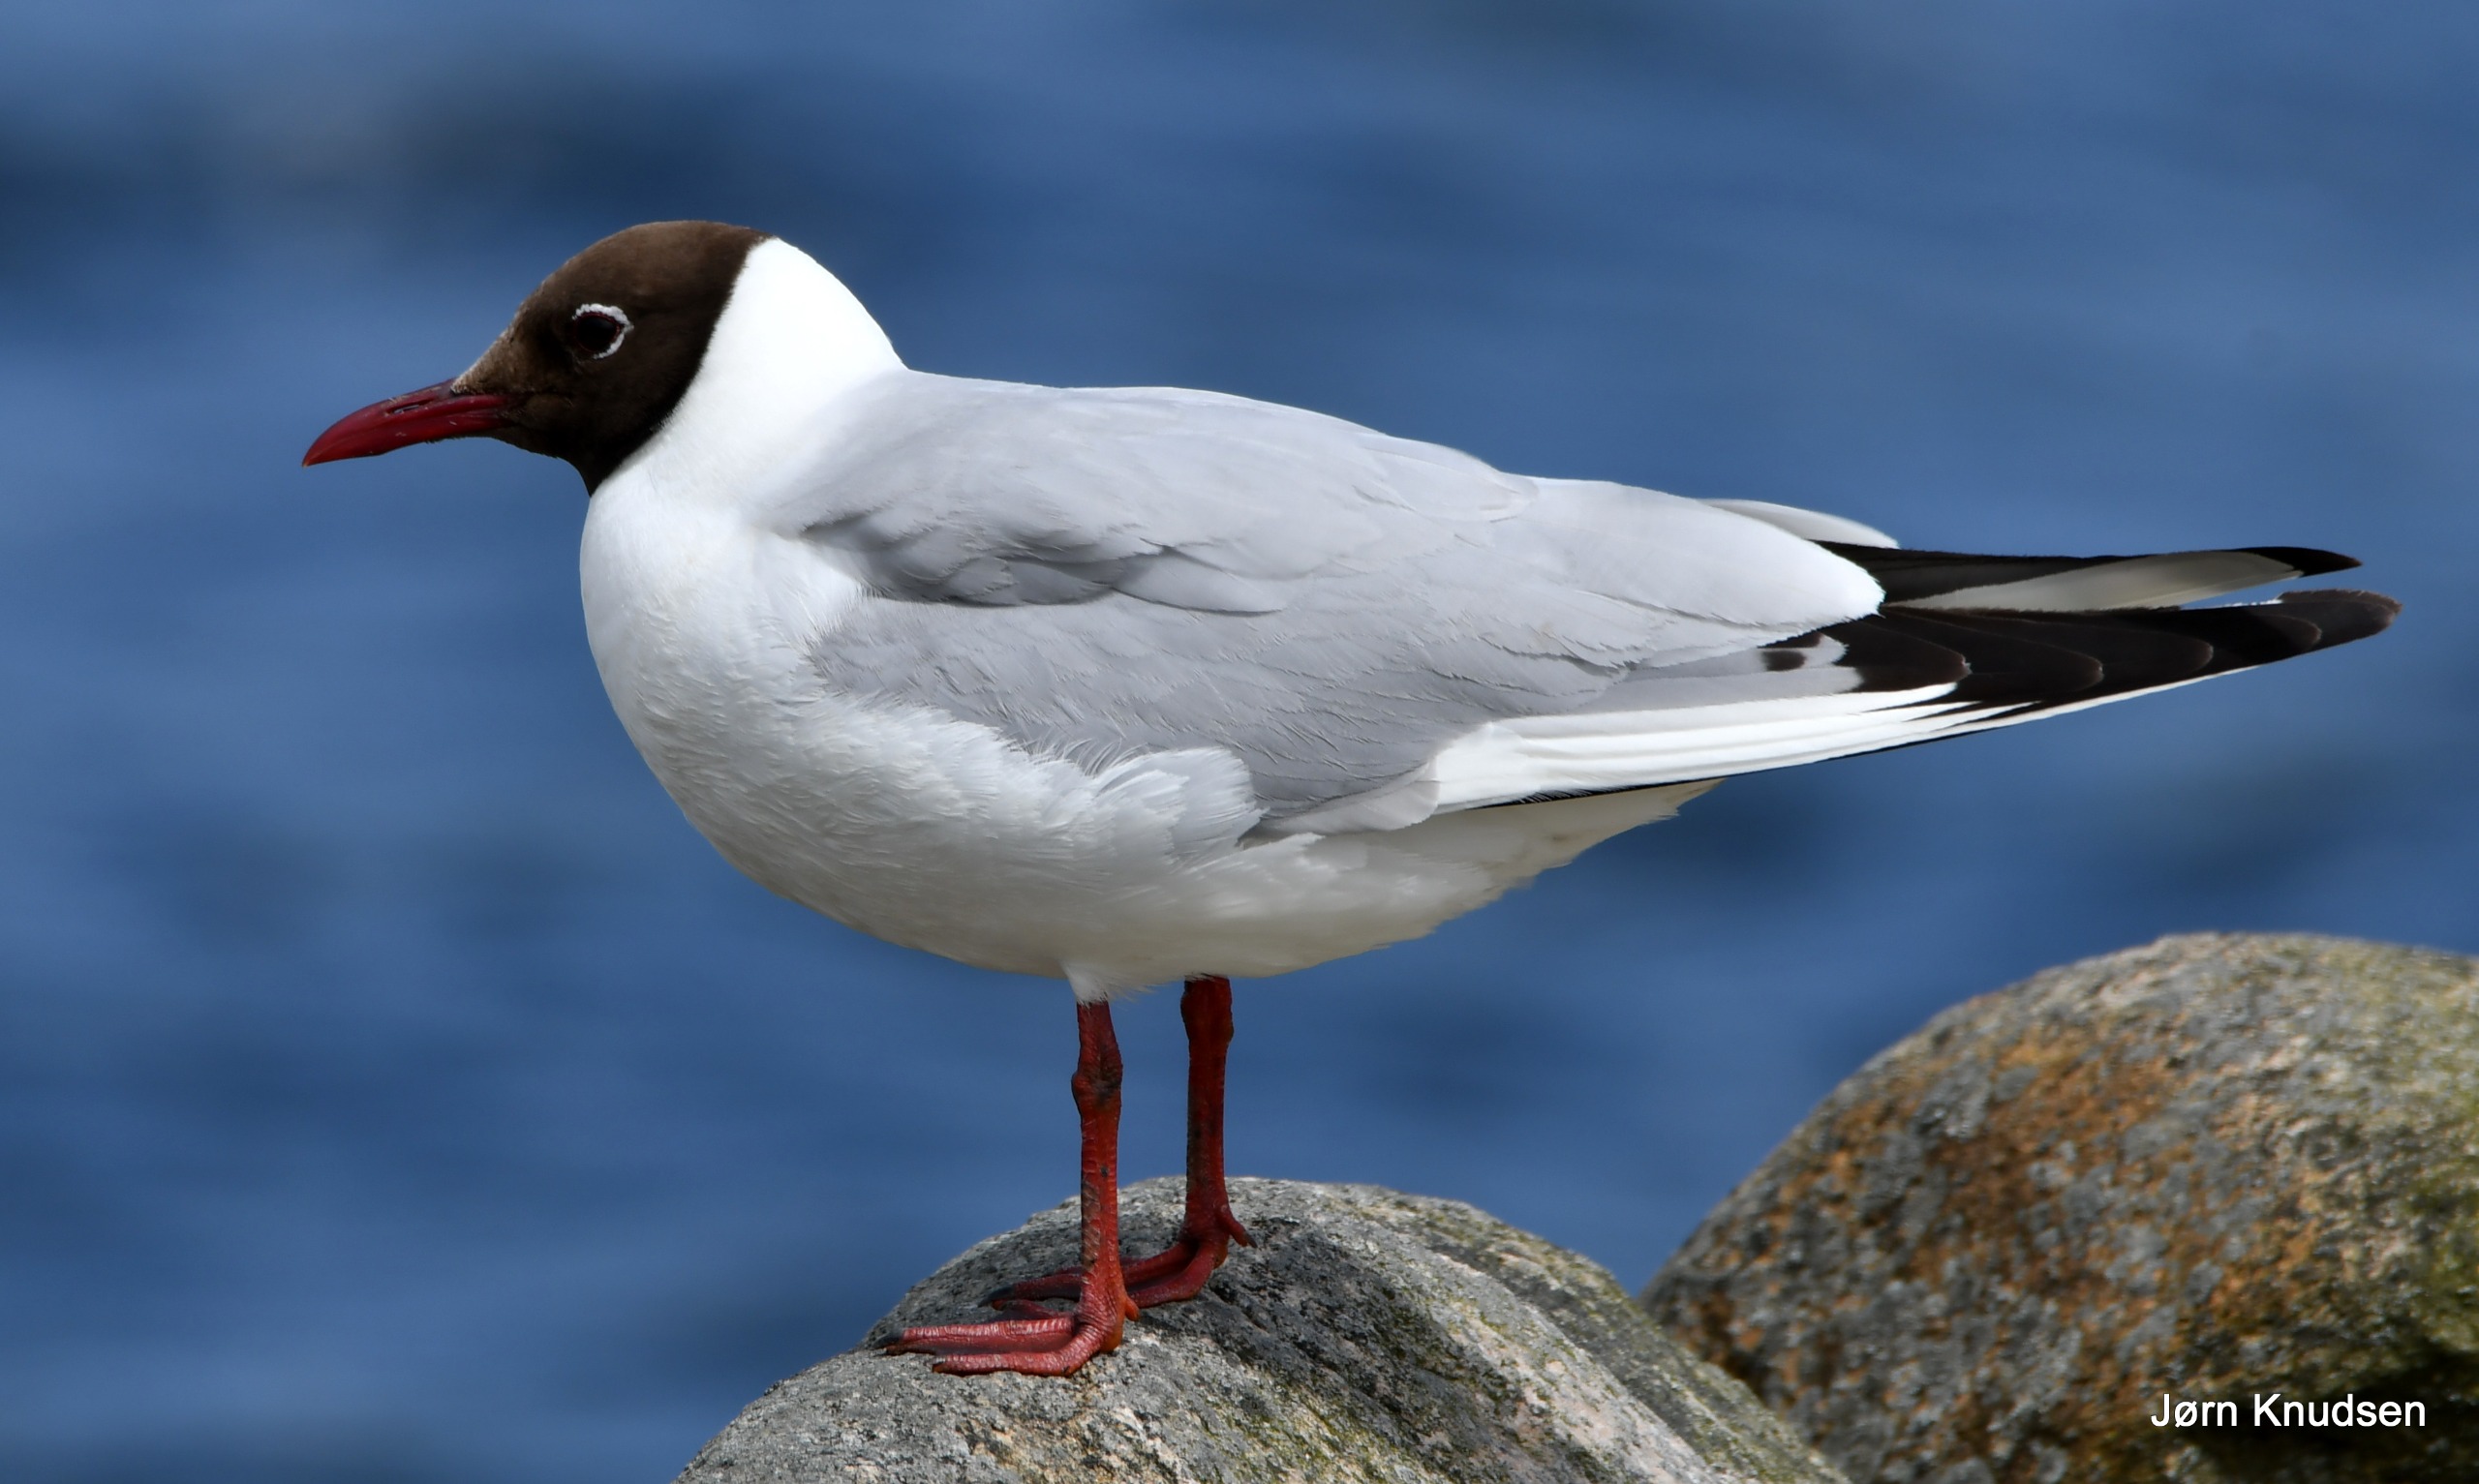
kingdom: Animalia
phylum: Chordata
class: Aves
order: Charadriiformes
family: Laridae
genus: Chroicocephalus
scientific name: Chroicocephalus ridibundus
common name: Hættemåge
